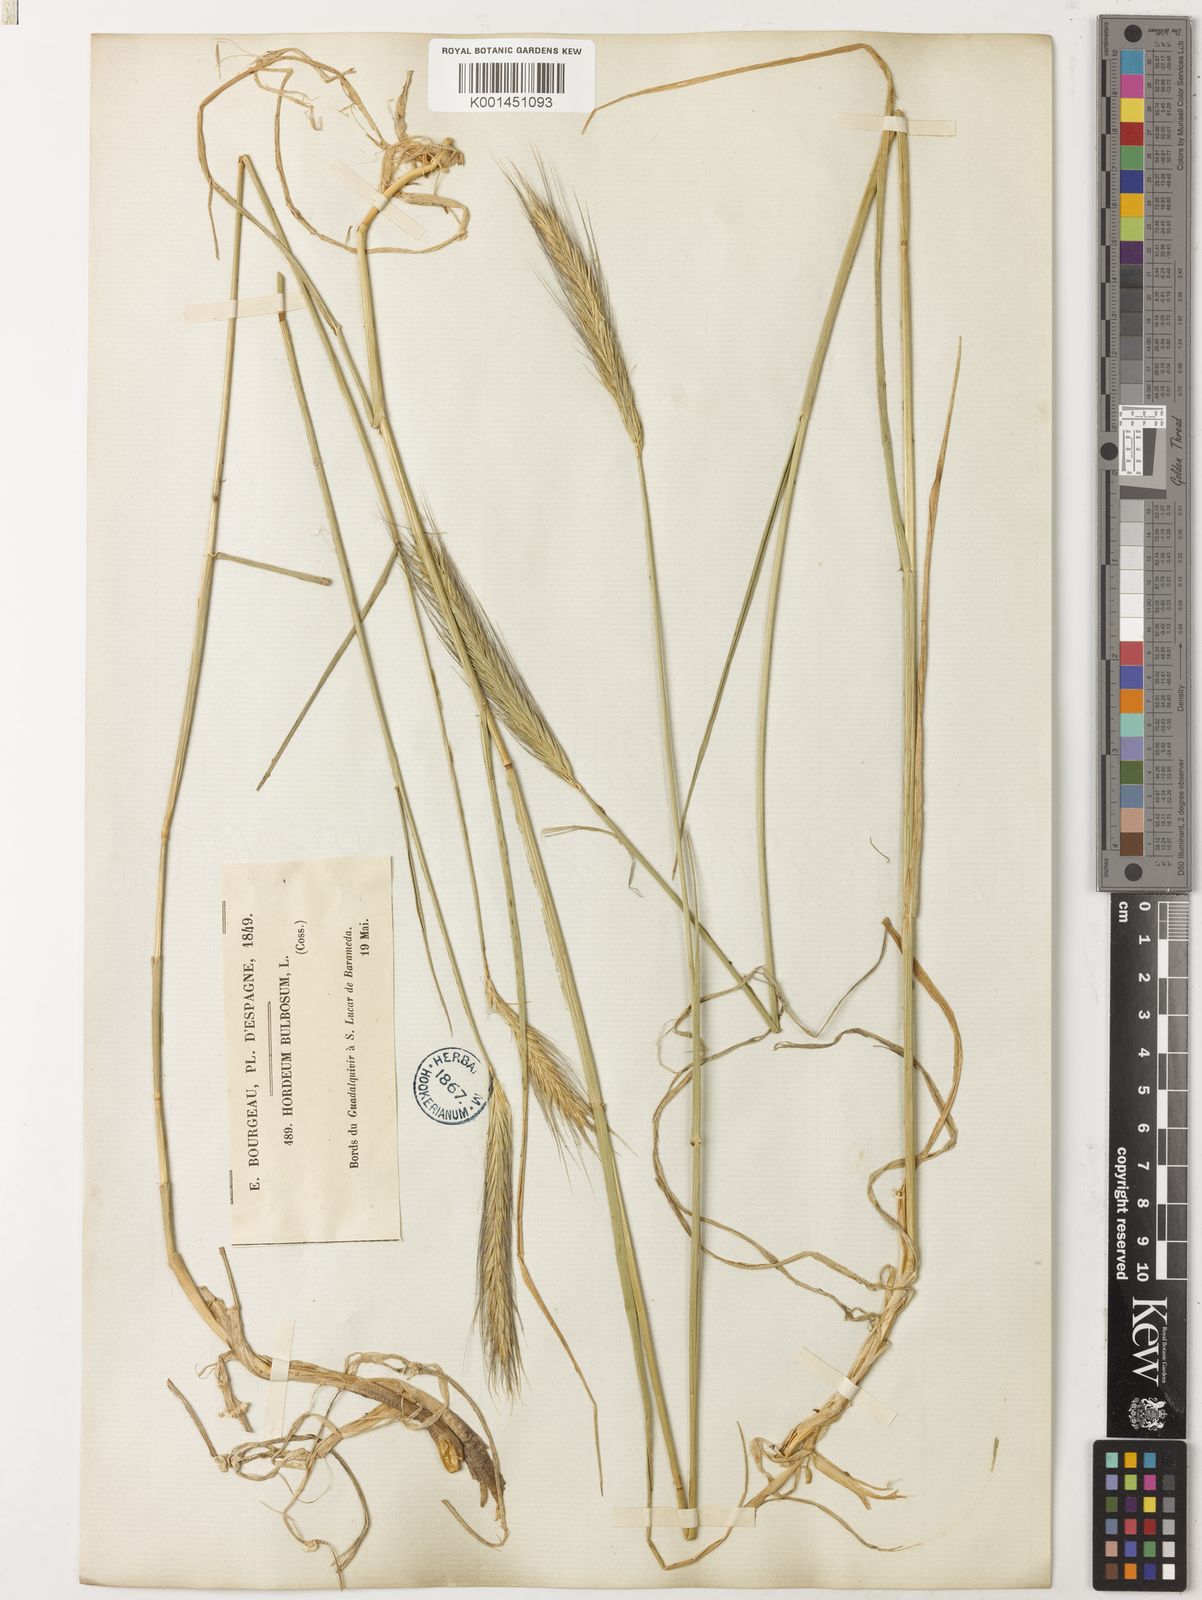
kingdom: Plantae
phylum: Tracheophyta
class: Liliopsida
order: Poales
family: Poaceae
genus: Hordeum
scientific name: Hordeum bulbosum
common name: Bulbous barley
